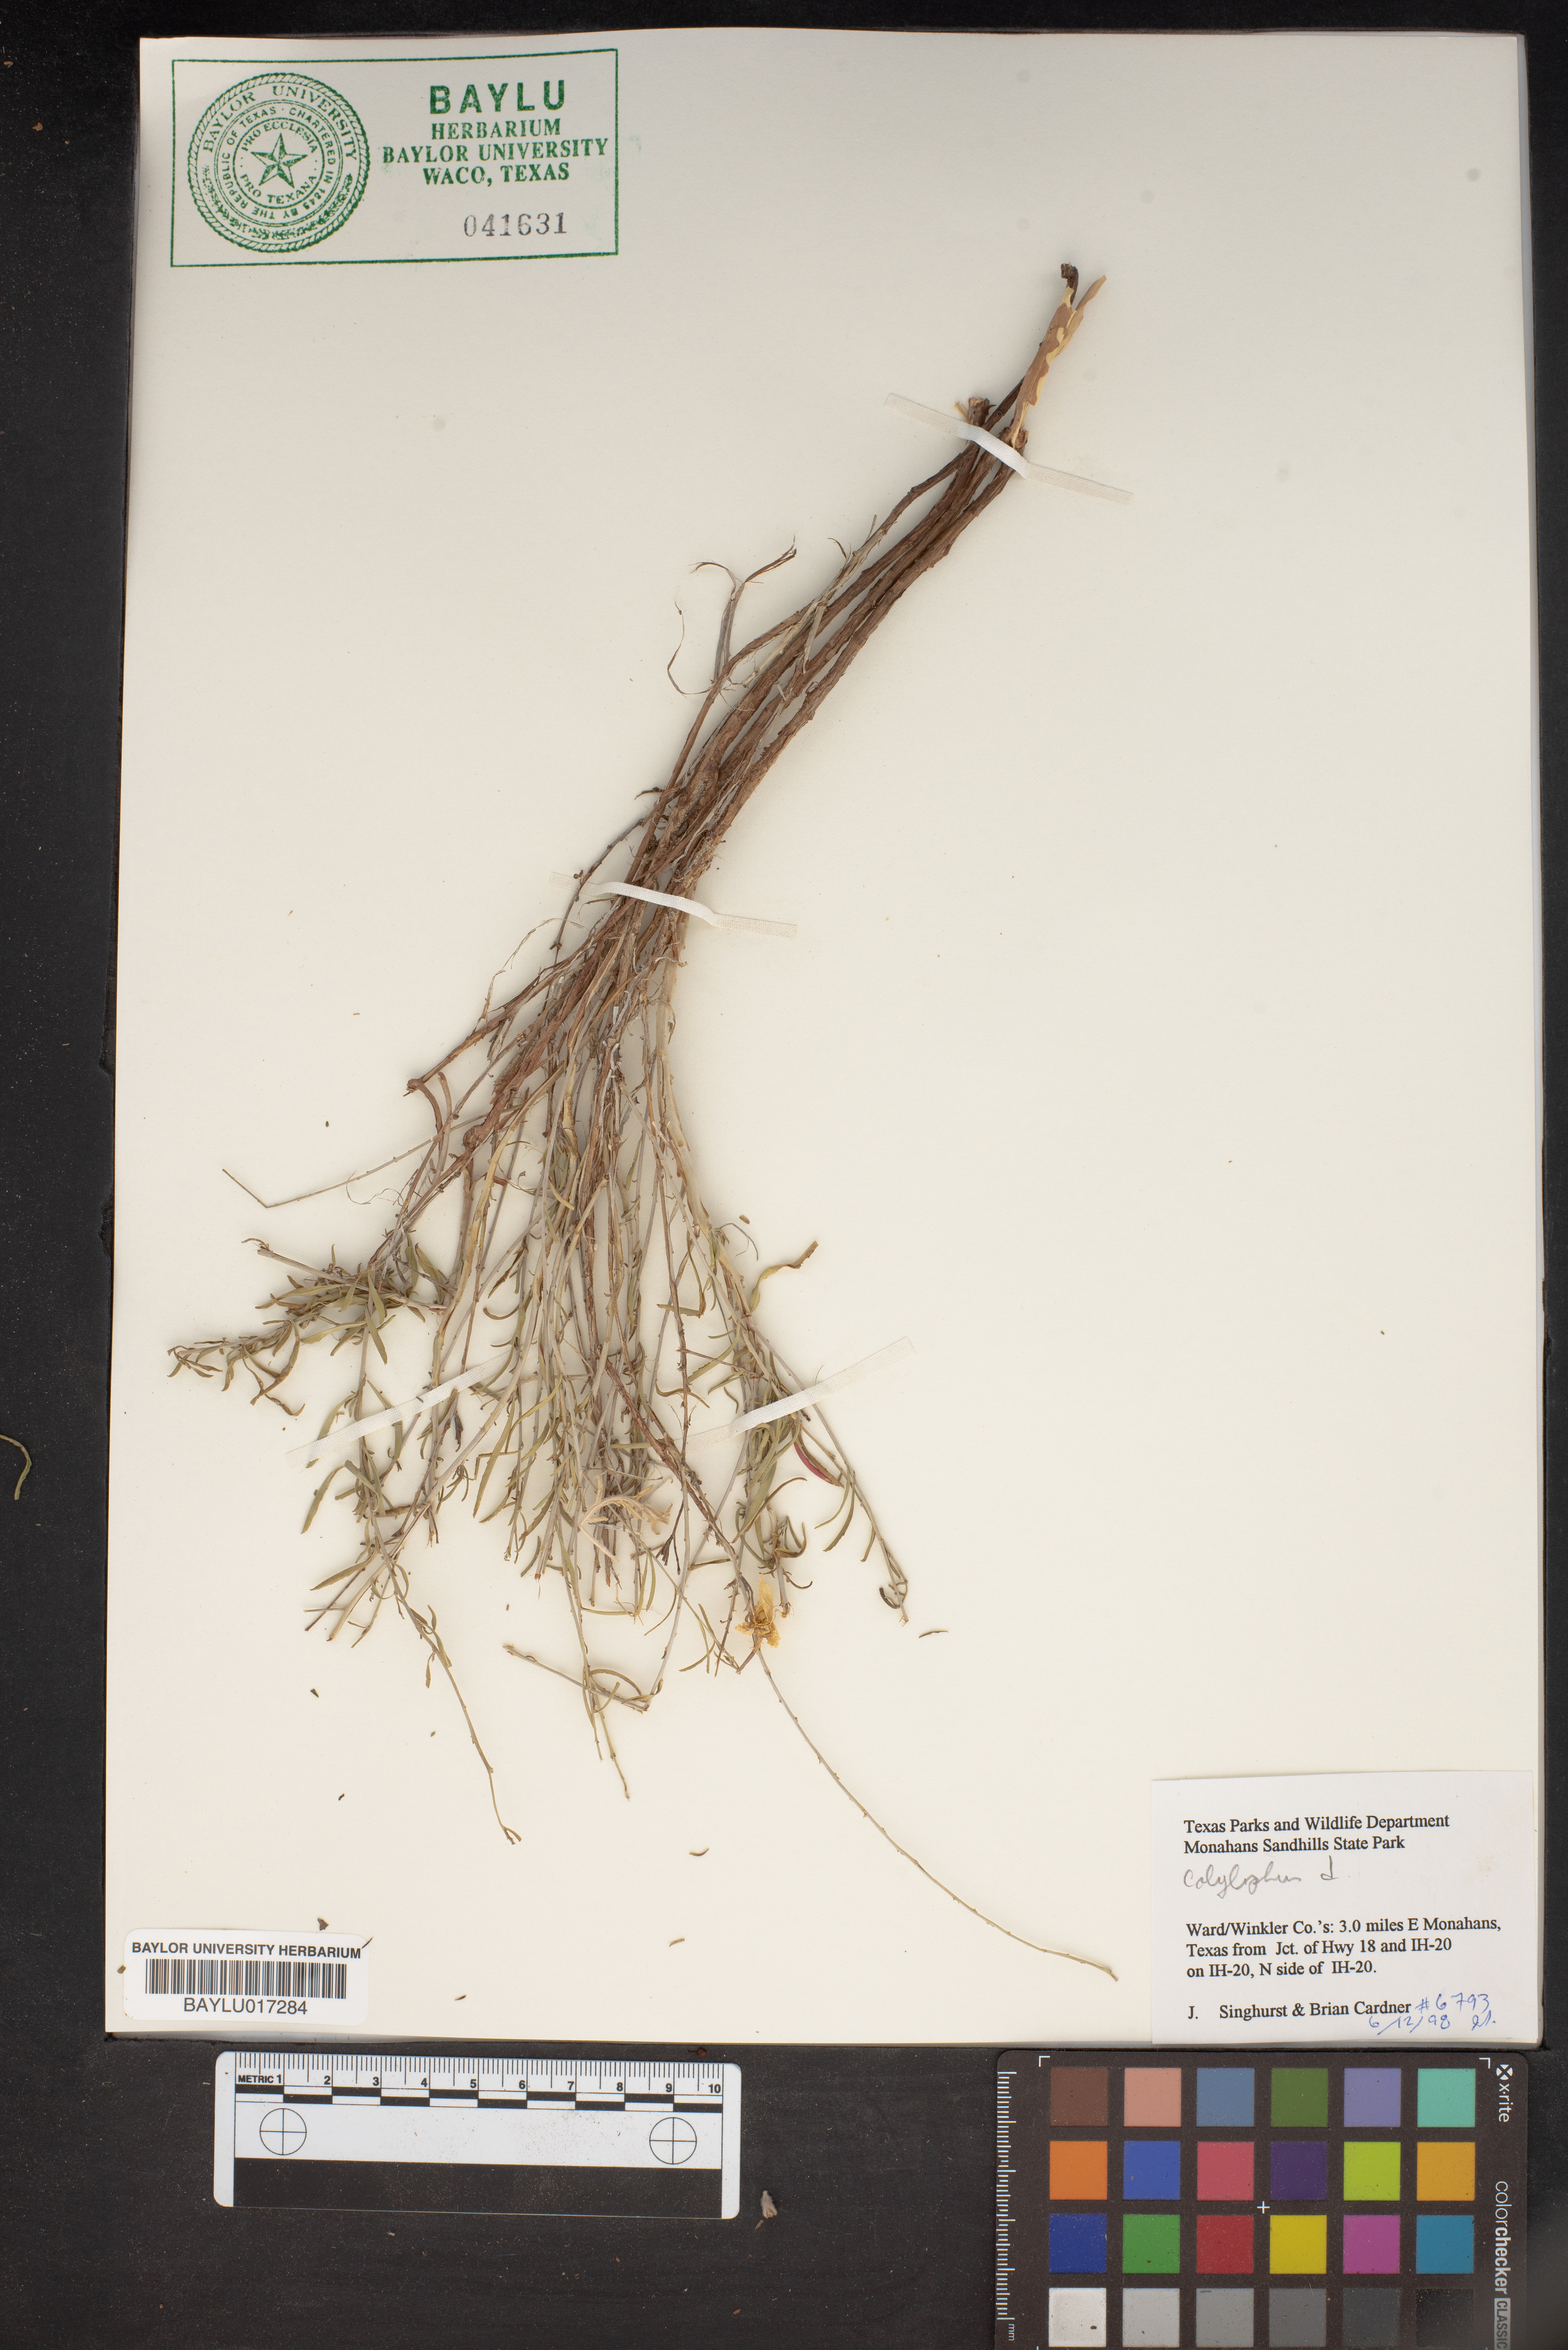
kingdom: Plantae
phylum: Tracheophyta
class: Magnoliopsida
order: Myrtales
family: Onagraceae
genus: Oenothera
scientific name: Oenothera
